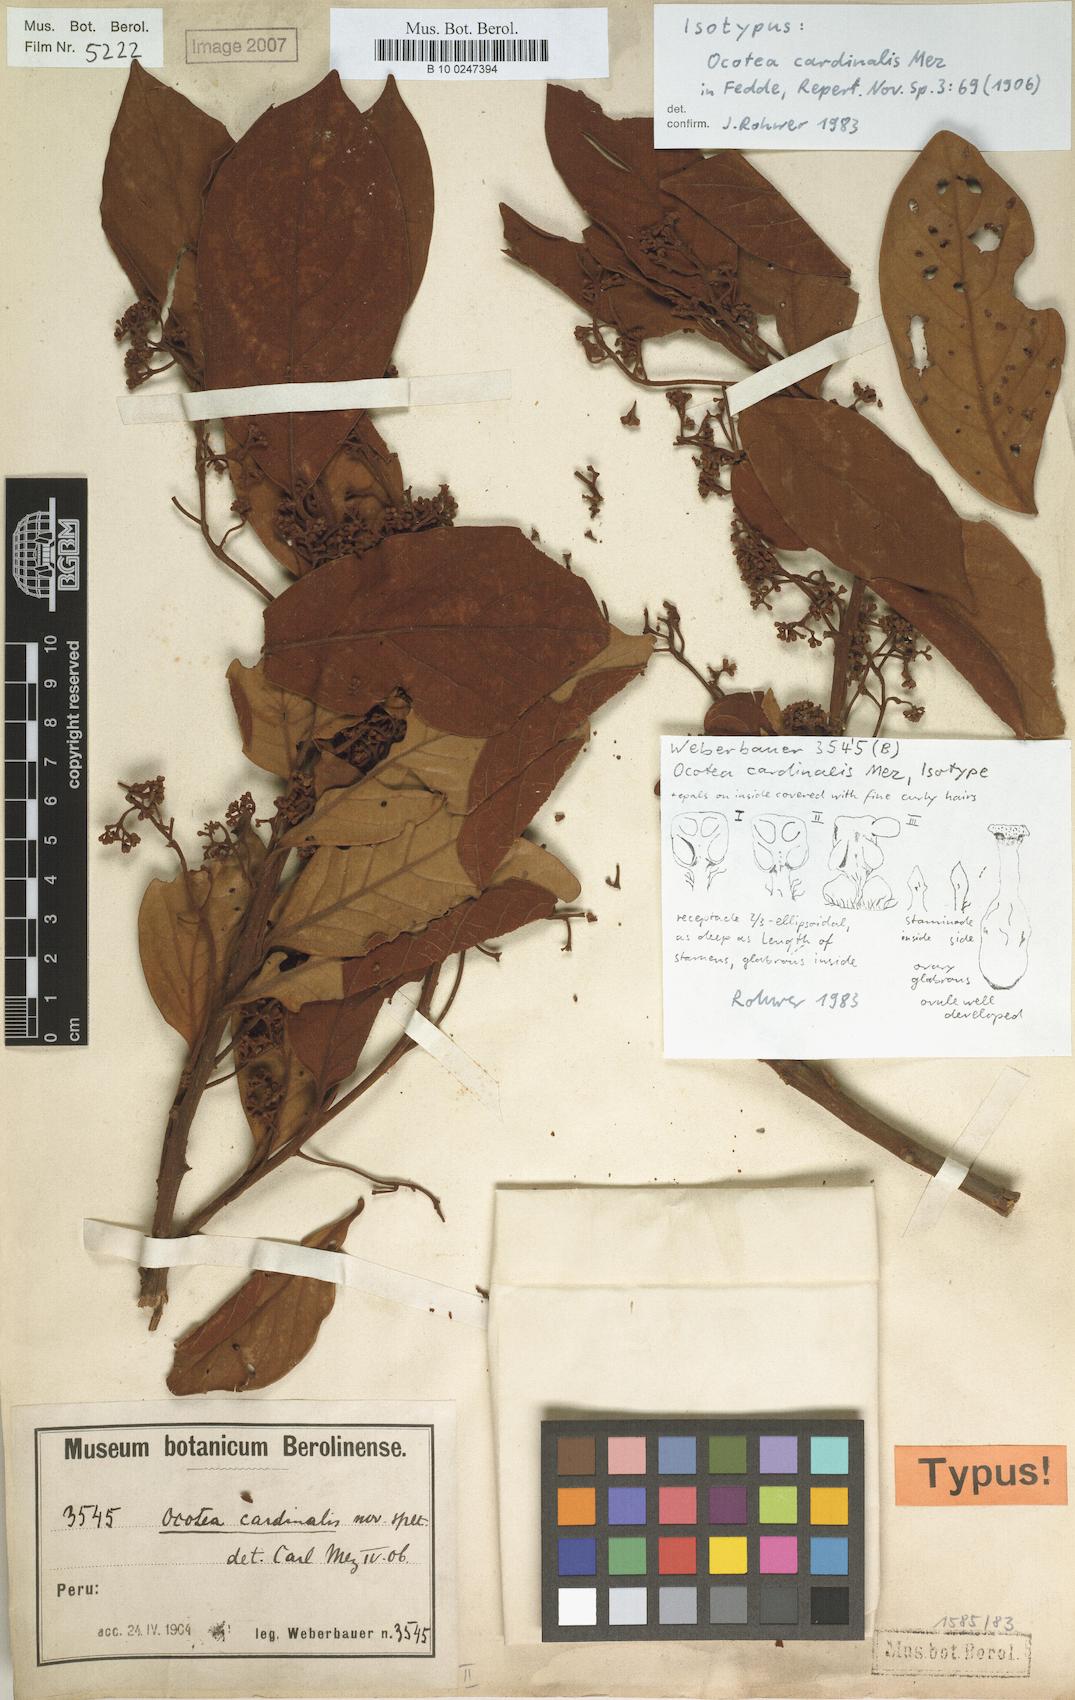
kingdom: Plantae
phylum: Tracheophyta
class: Magnoliopsida
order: Laurales
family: Lauraceae
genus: Ocotea
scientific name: Ocotea cardinalis
